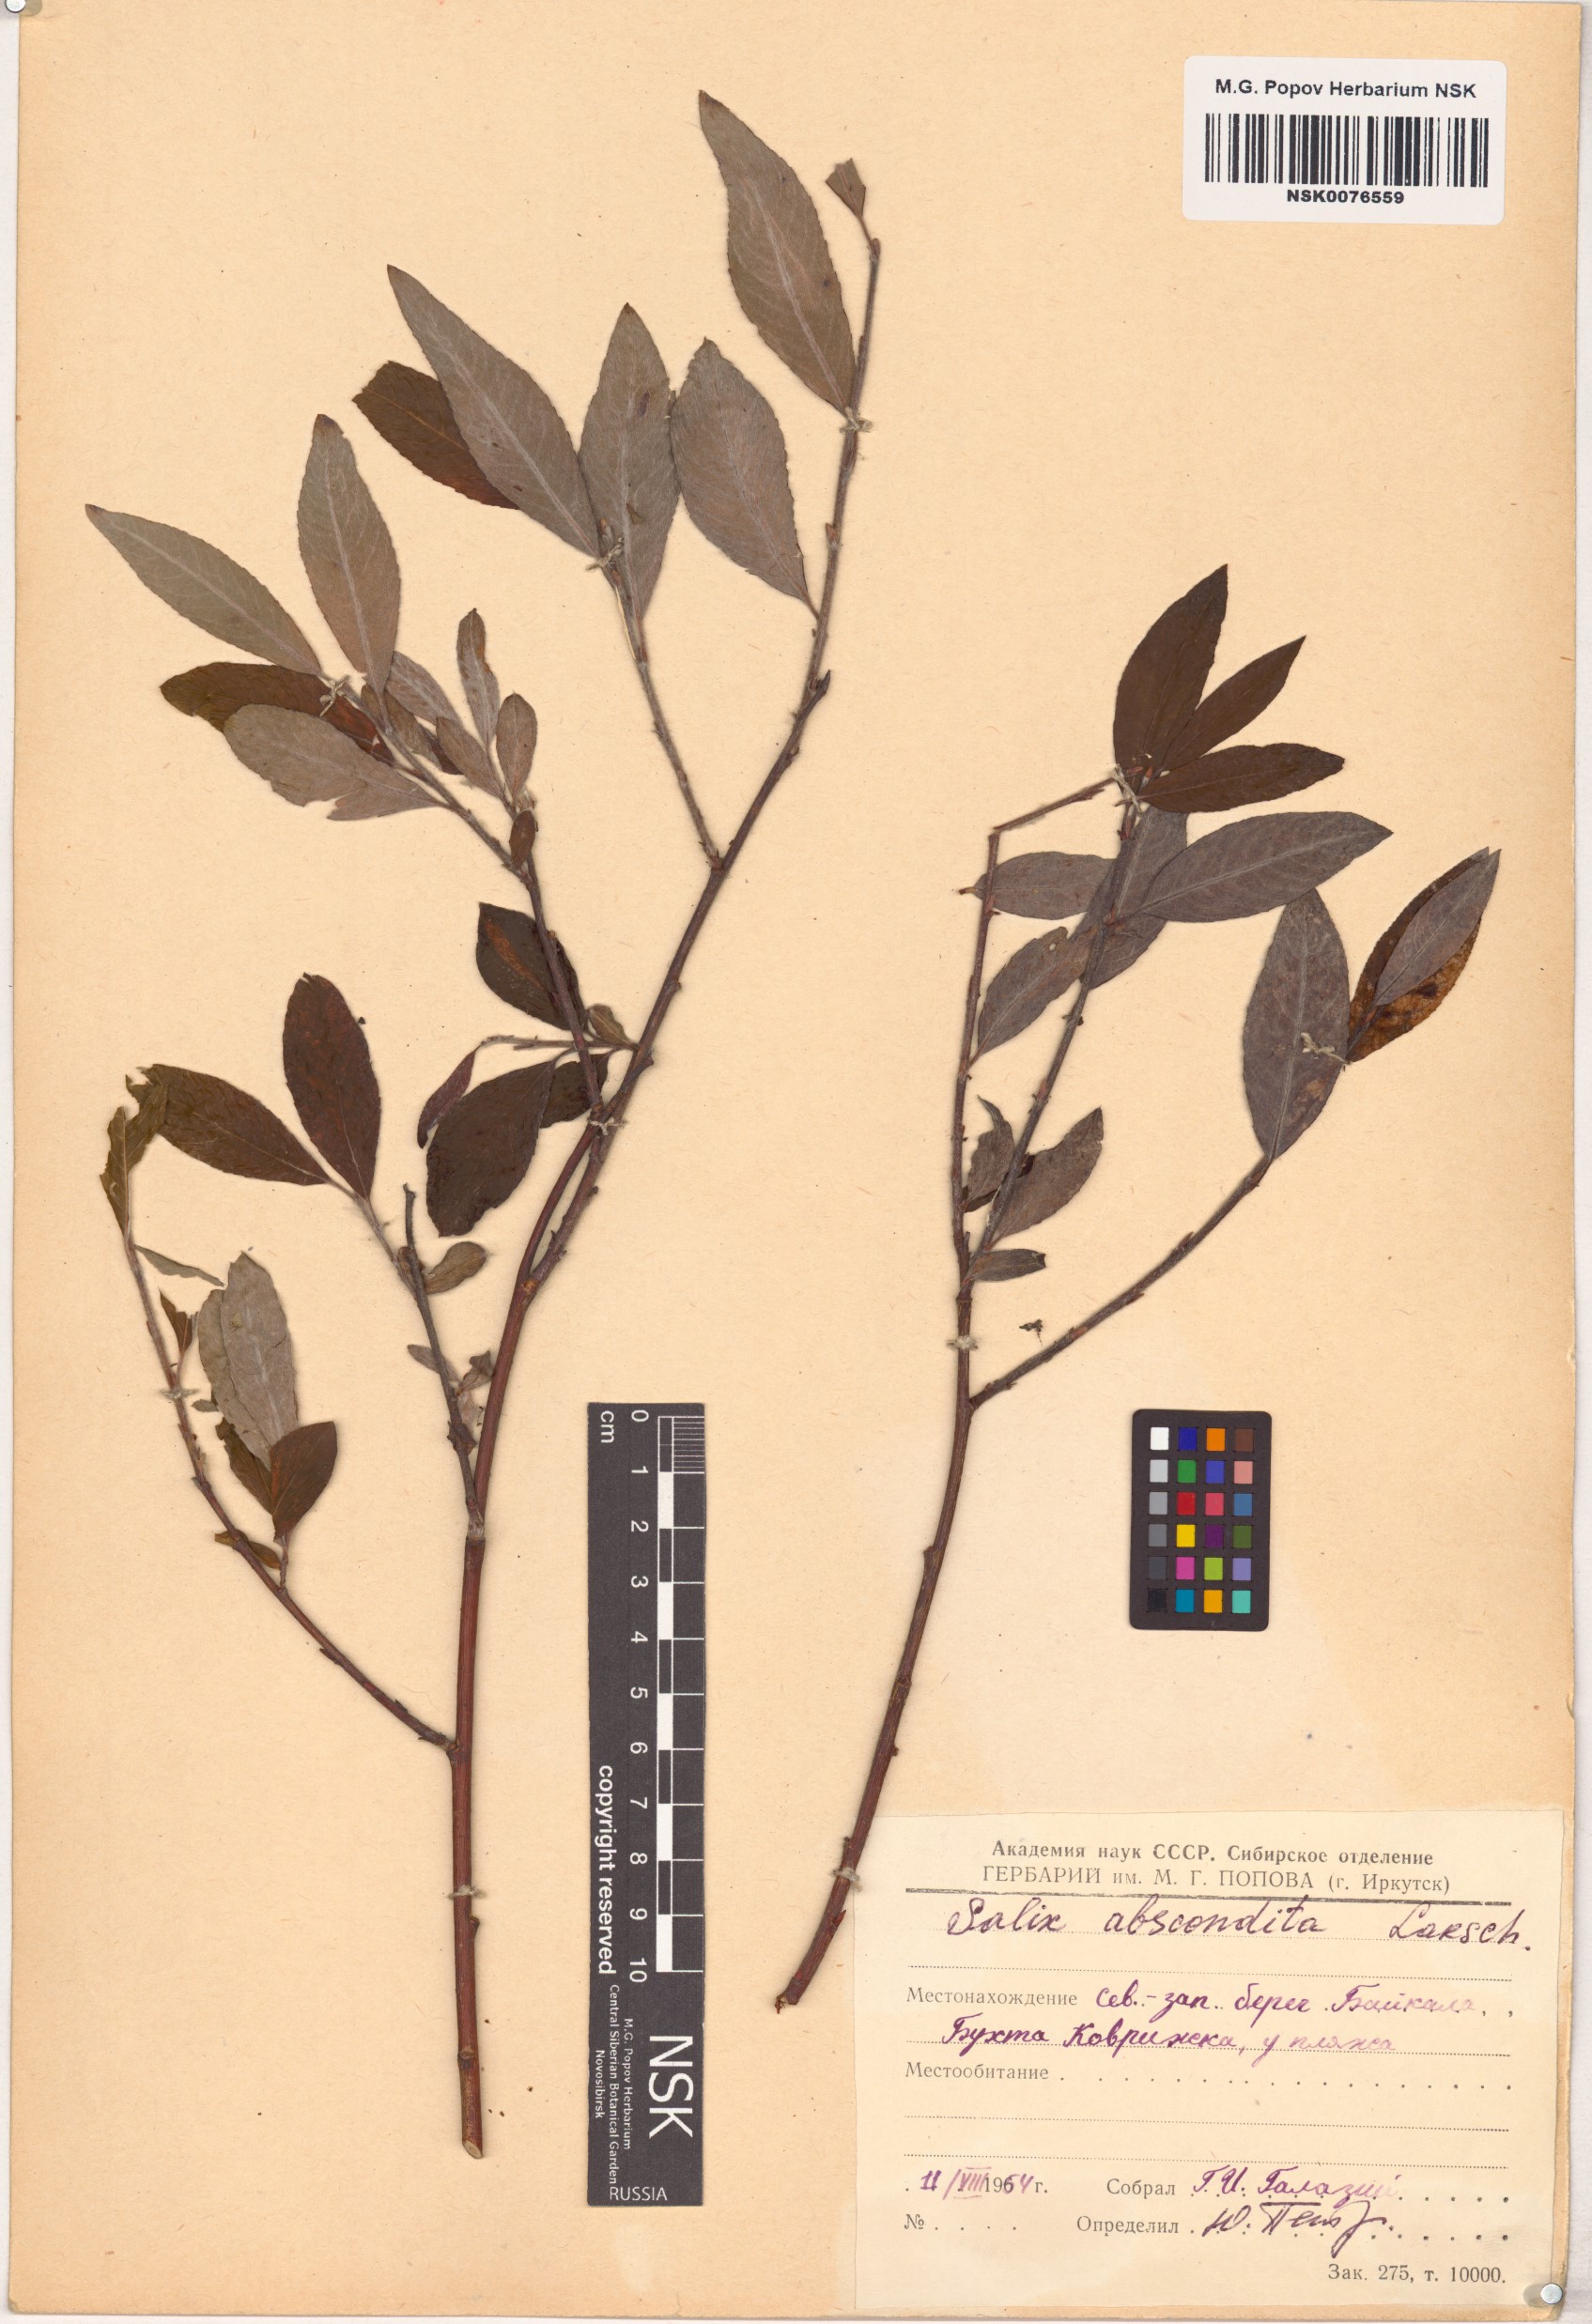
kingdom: Plantae
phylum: Tracheophyta
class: Magnoliopsida
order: Malpighiales
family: Salicaceae
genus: Salix
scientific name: Salix abscondita
